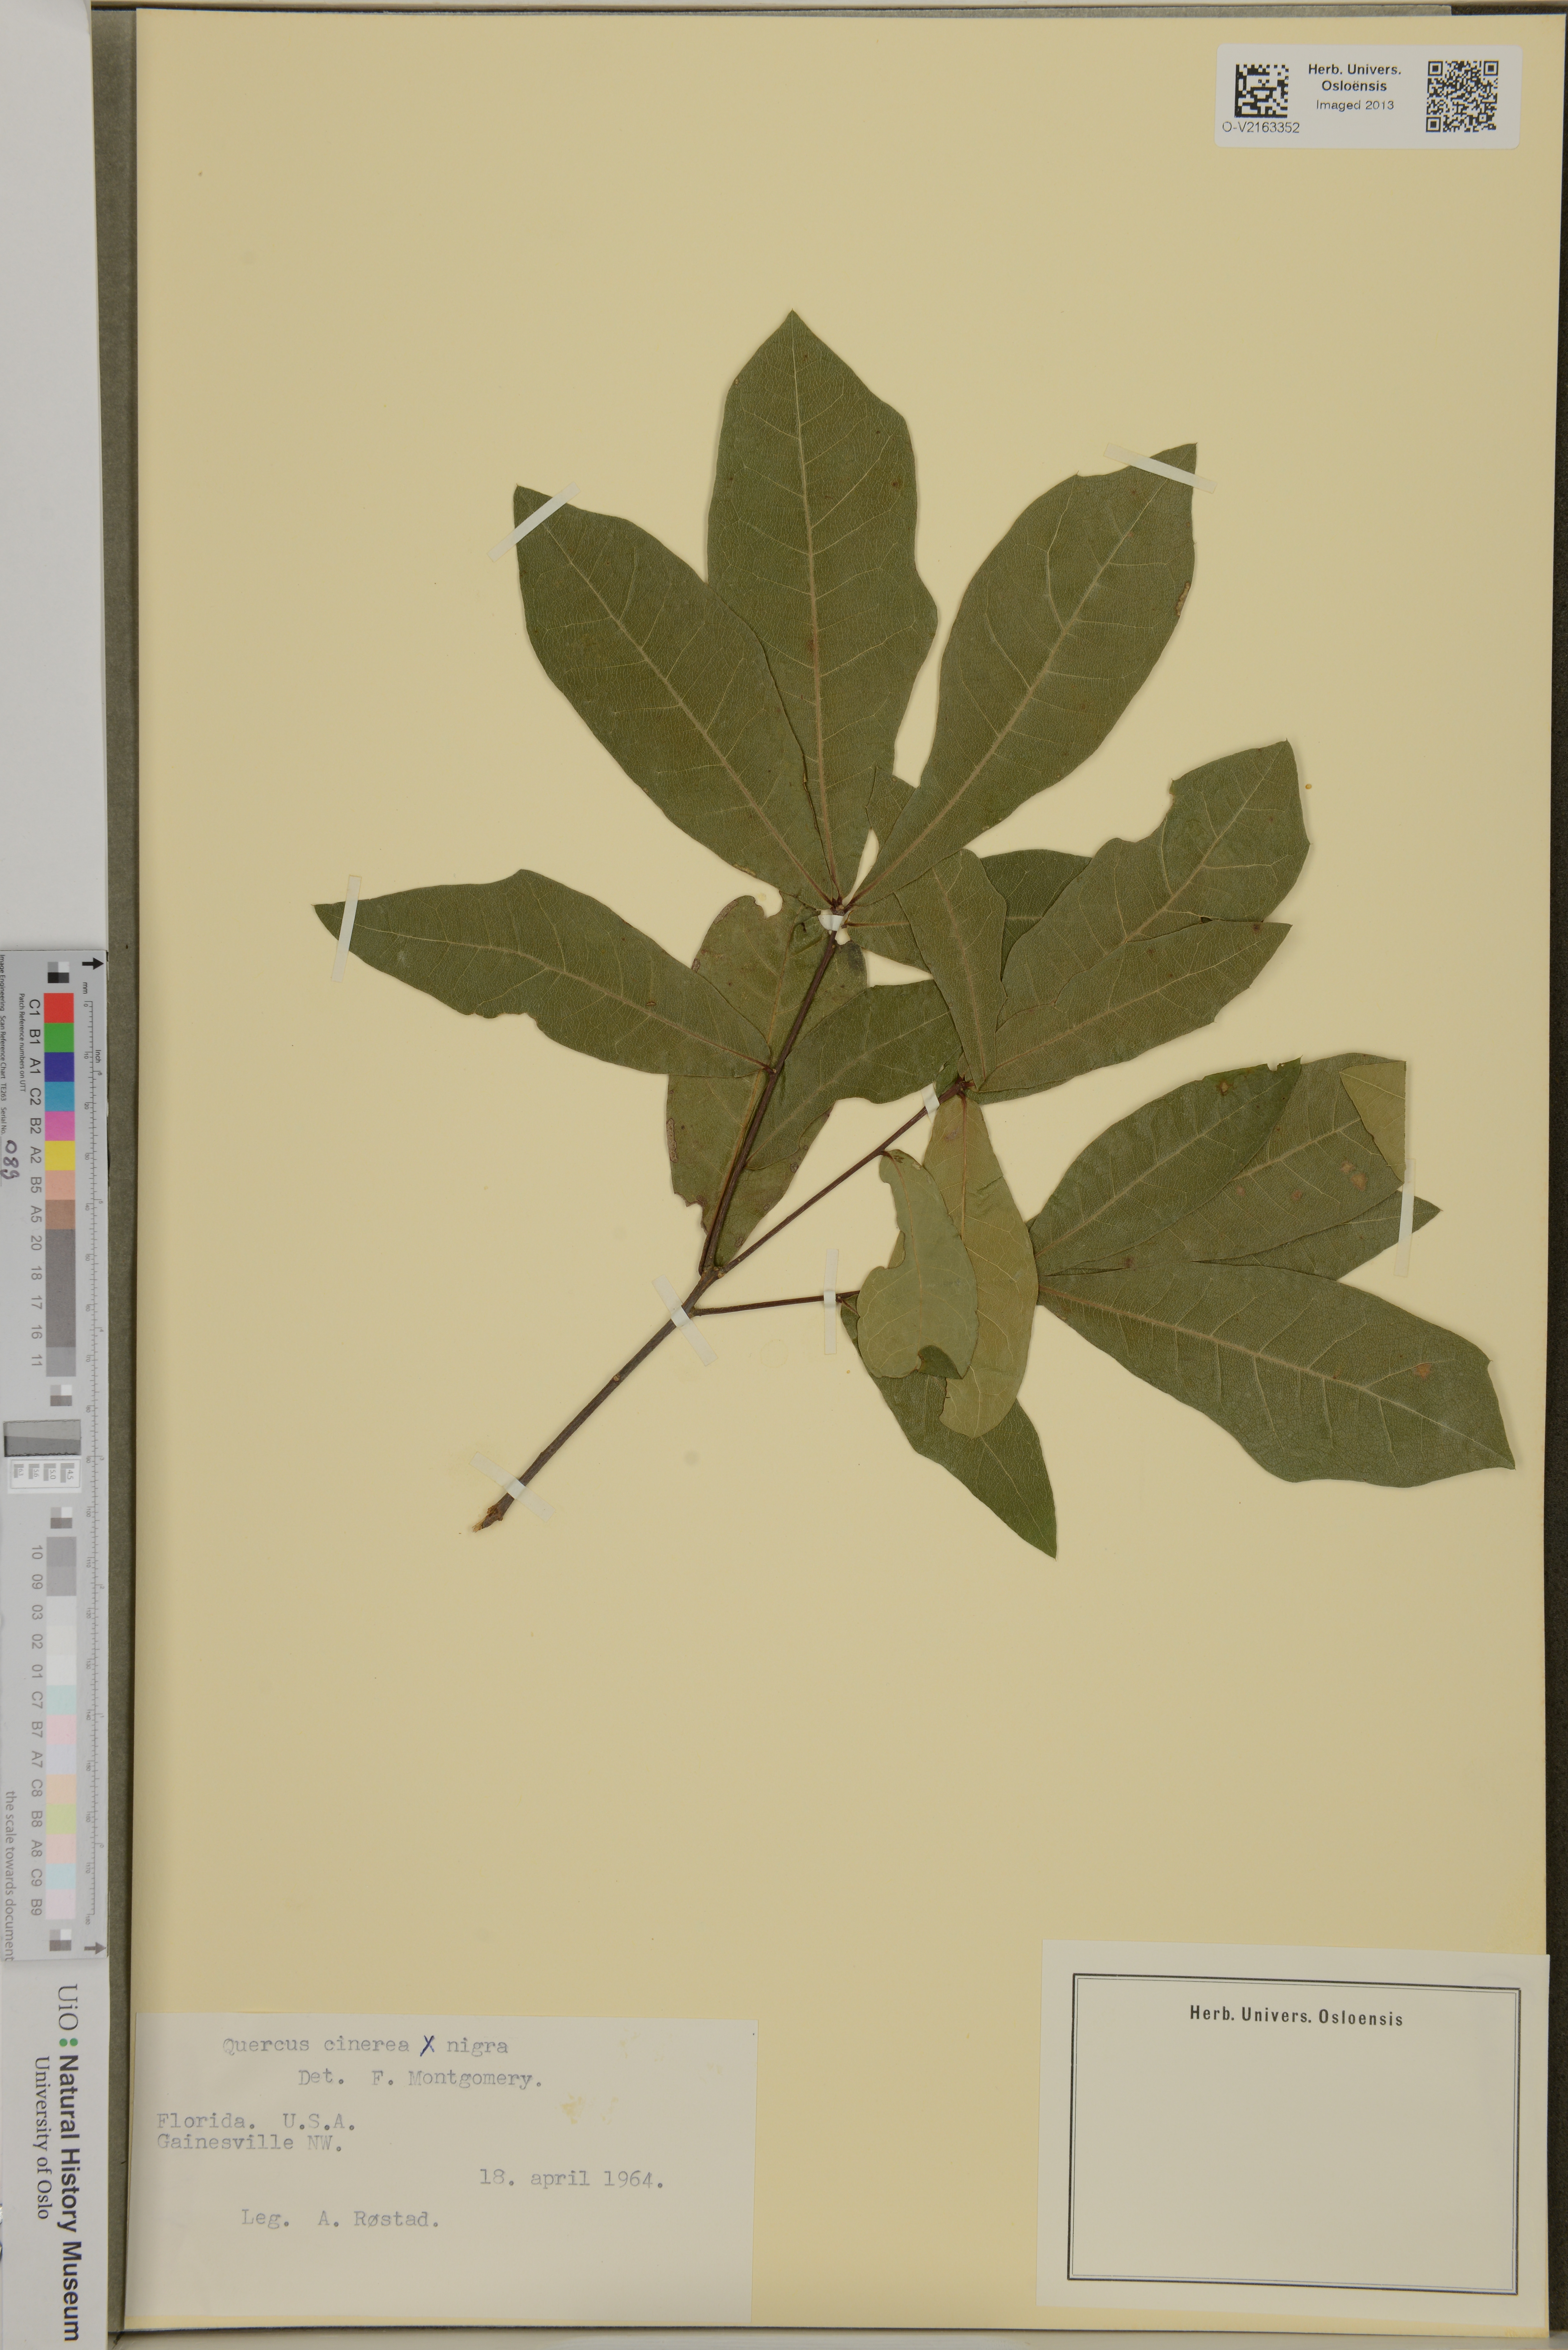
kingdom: Plantae
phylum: Tracheophyta
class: Magnoliopsida
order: Fagales
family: Fagaceae
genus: Quercus
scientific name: Quercus incana
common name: Bluejack oak
